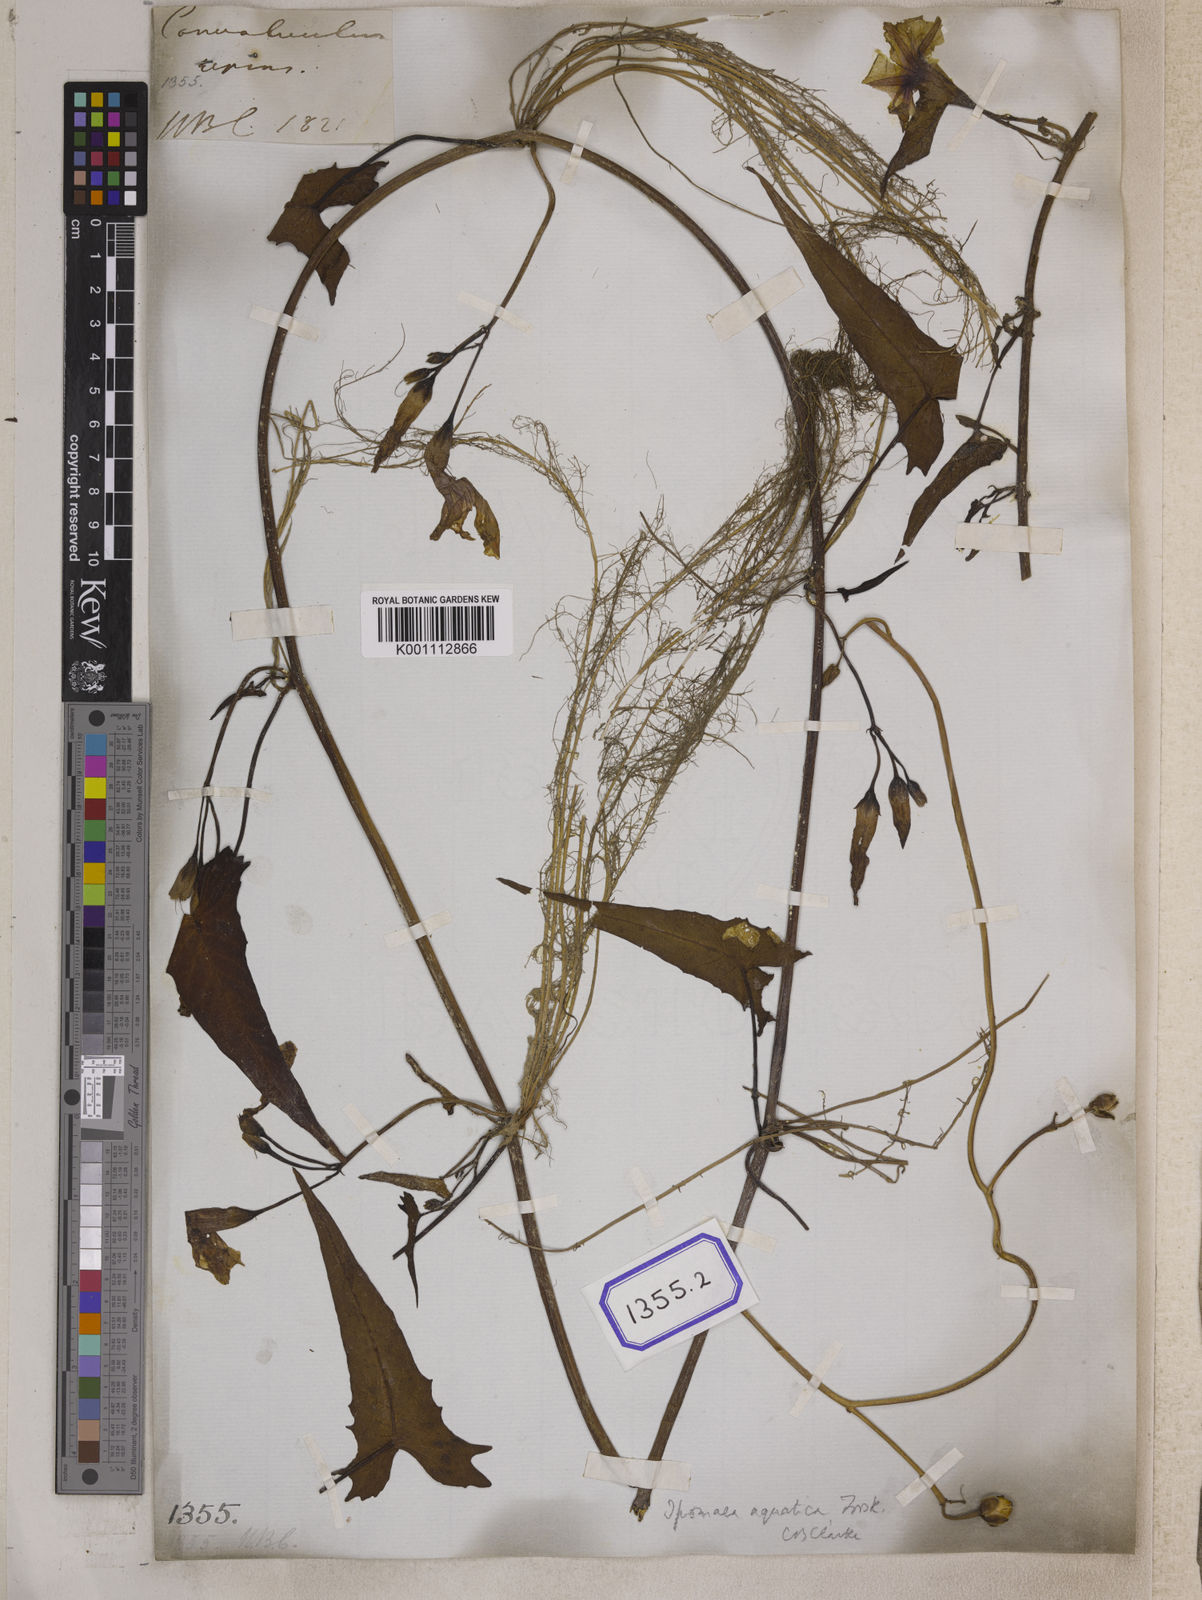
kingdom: Plantae
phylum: Tracheophyta
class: Magnoliopsida
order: Solanales
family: Convolvulaceae
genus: Calystegia
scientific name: Calystegia sepium
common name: Hedge bindweed
